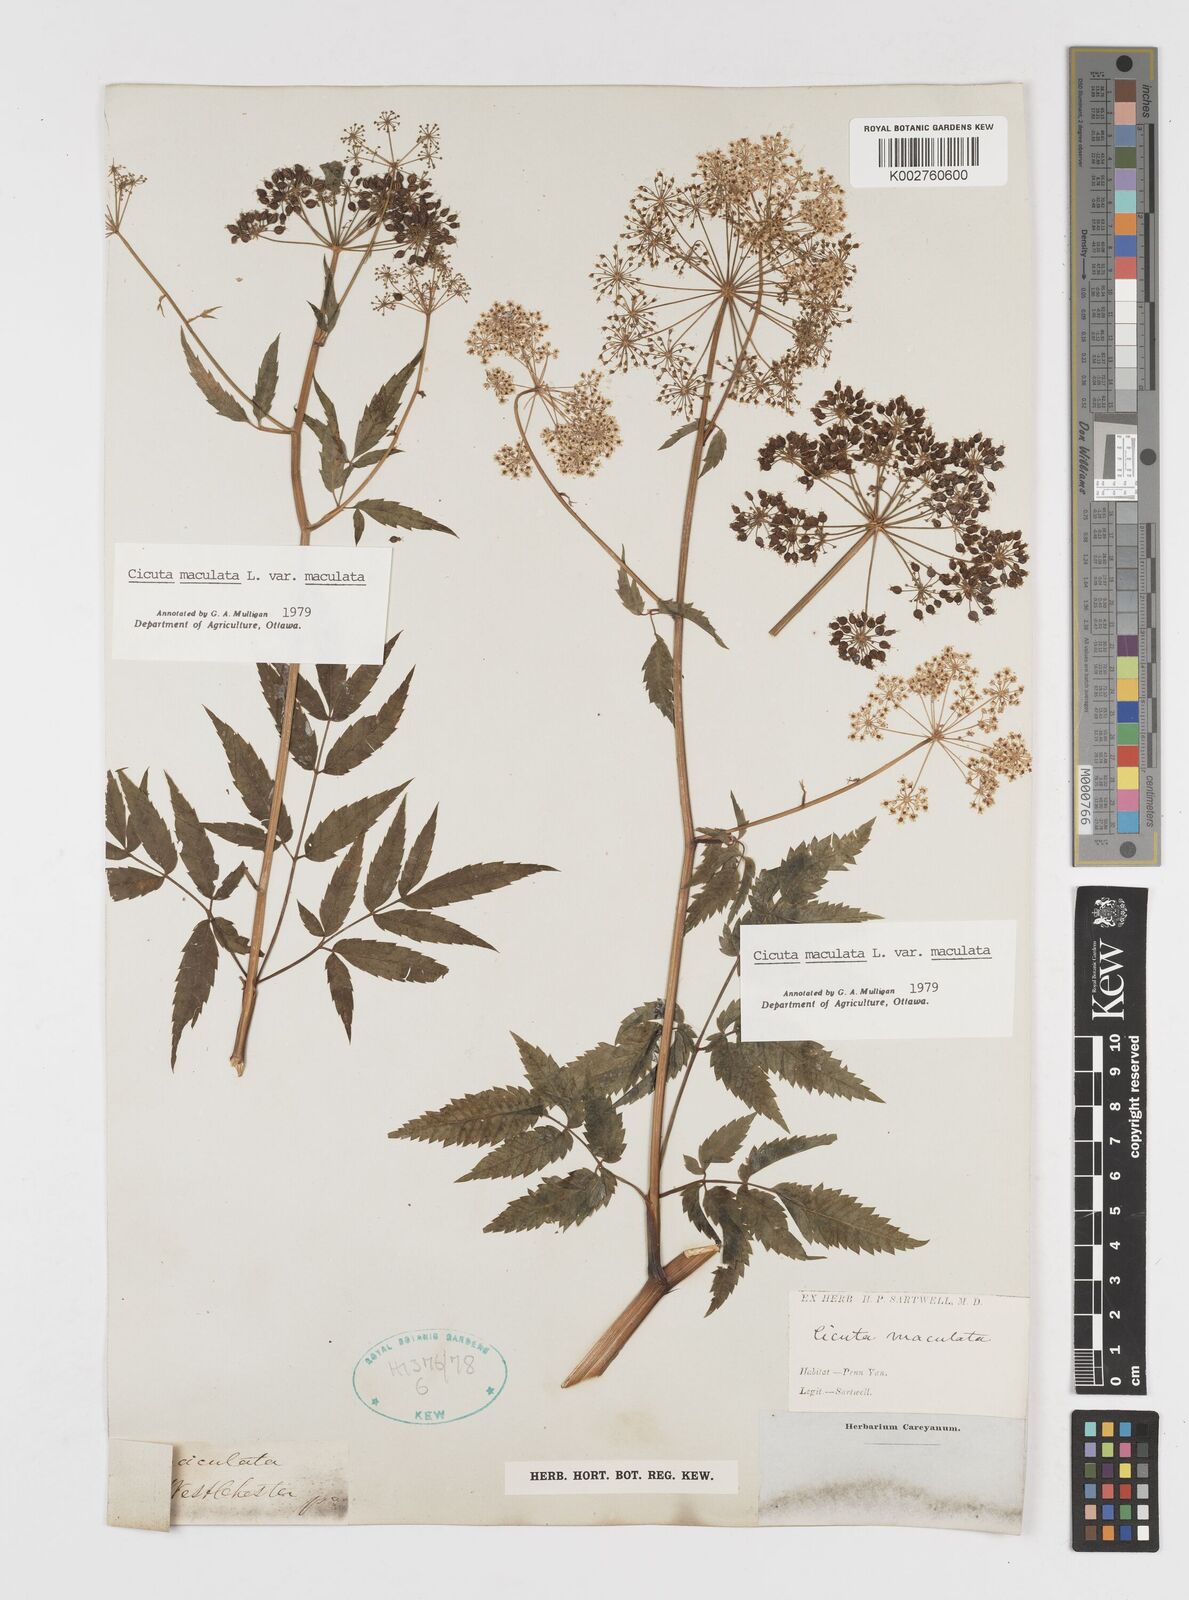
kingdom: Plantae
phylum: Tracheophyta
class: Magnoliopsida
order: Apiales
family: Apiaceae
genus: Cicuta
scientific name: Cicuta maculata
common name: Spotted cowbane
